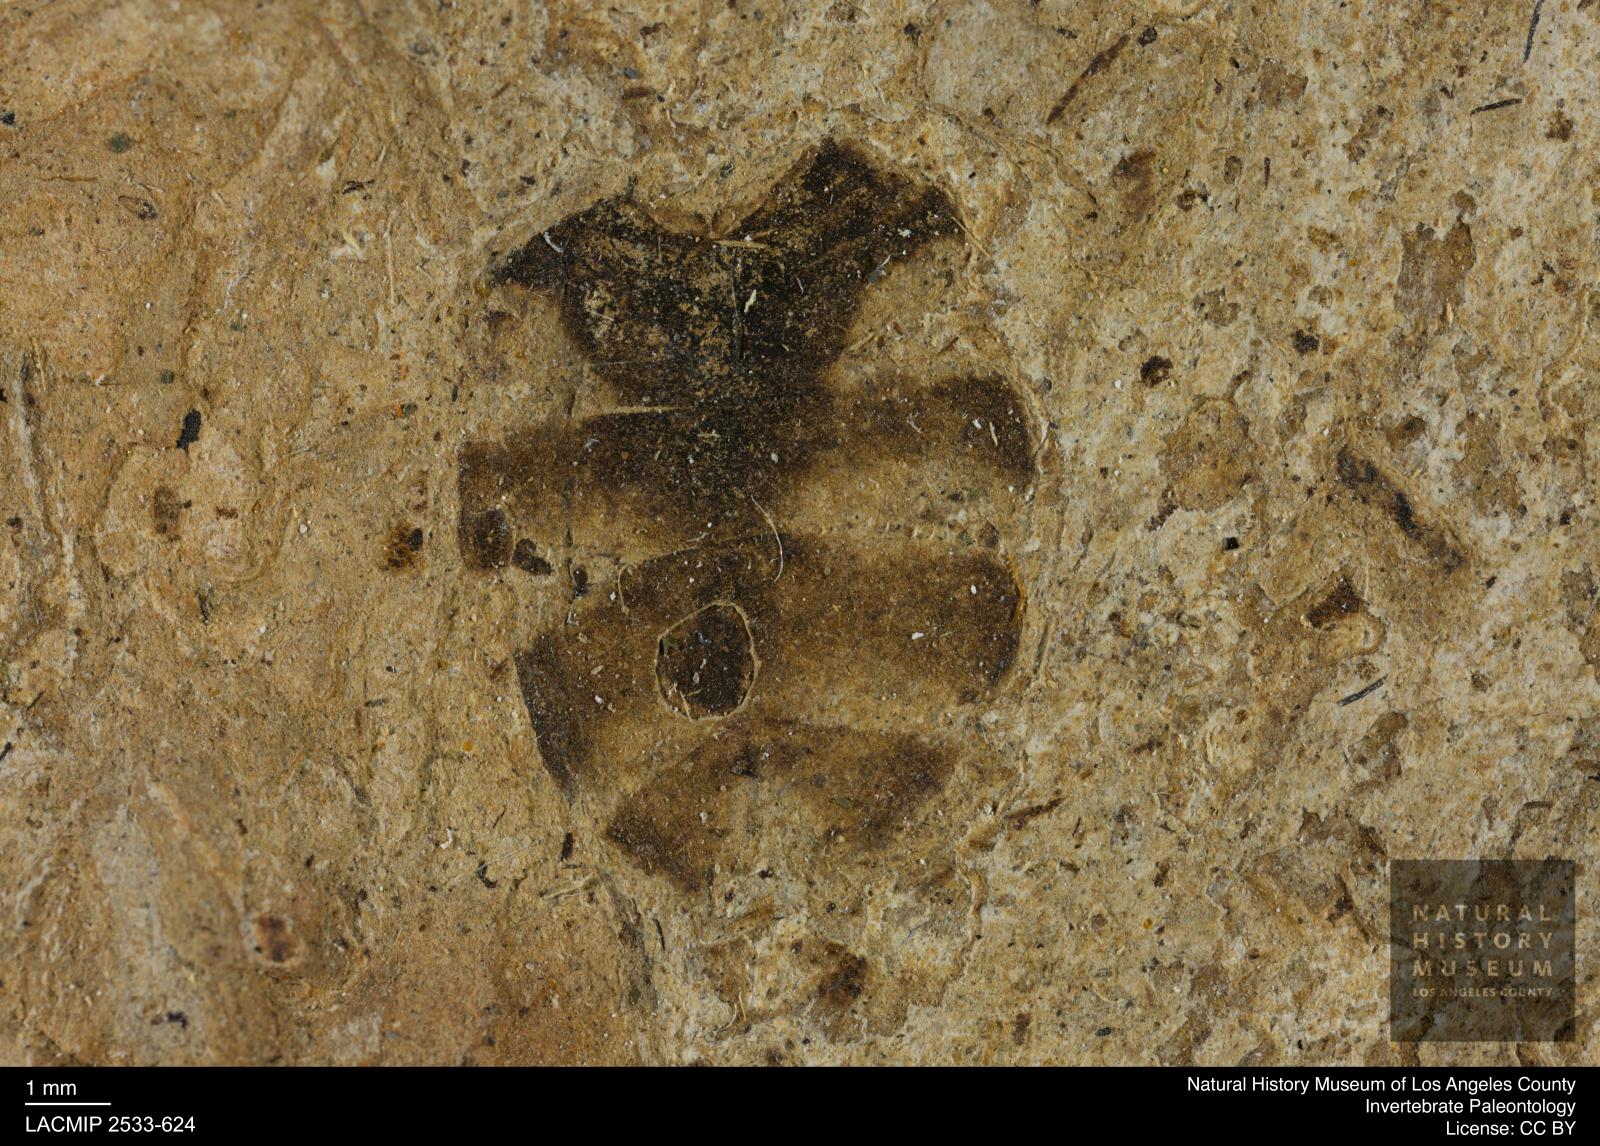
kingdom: Animalia
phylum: Arthropoda
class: Insecta
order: Diptera
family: Stratiomyidae
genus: Stratiomys
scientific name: Stratiomys
